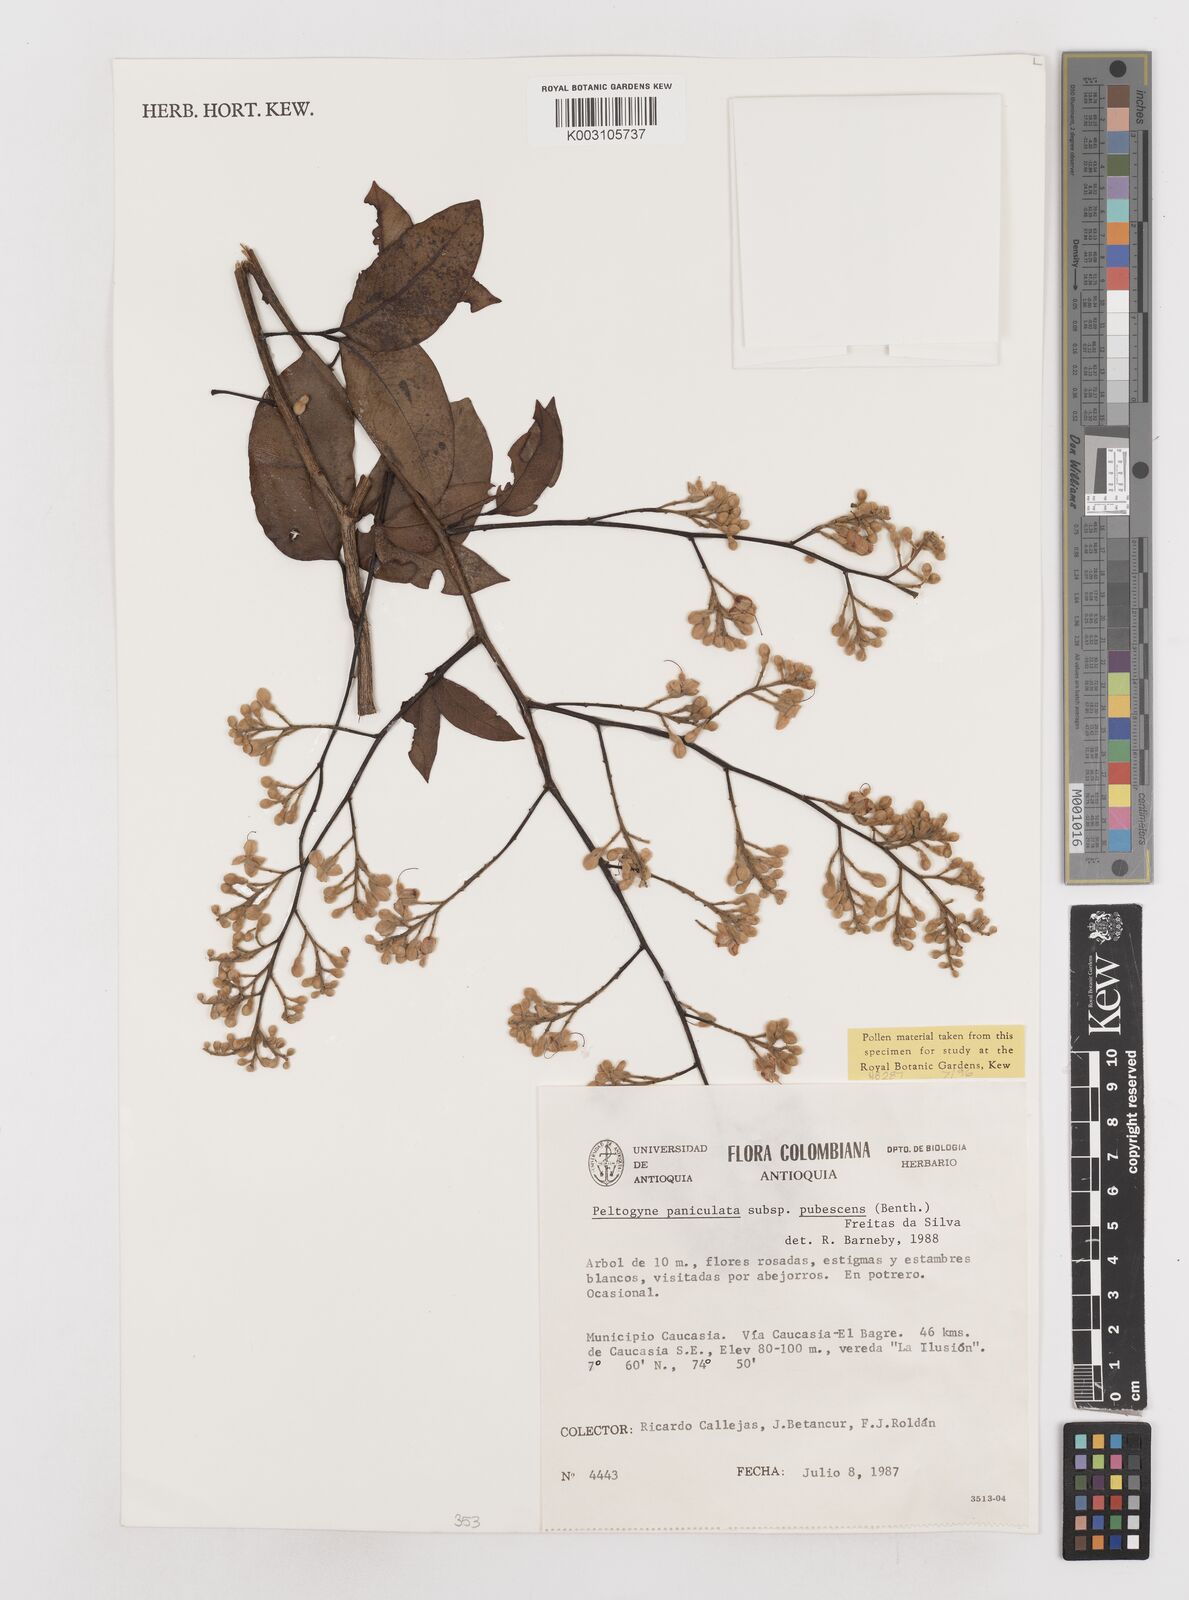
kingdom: Plantae
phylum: Tracheophyta
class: Magnoliopsida
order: Fabales
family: Fabaceae
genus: Peltogyne
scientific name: Peltogyne paniculata
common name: Purpleheart
